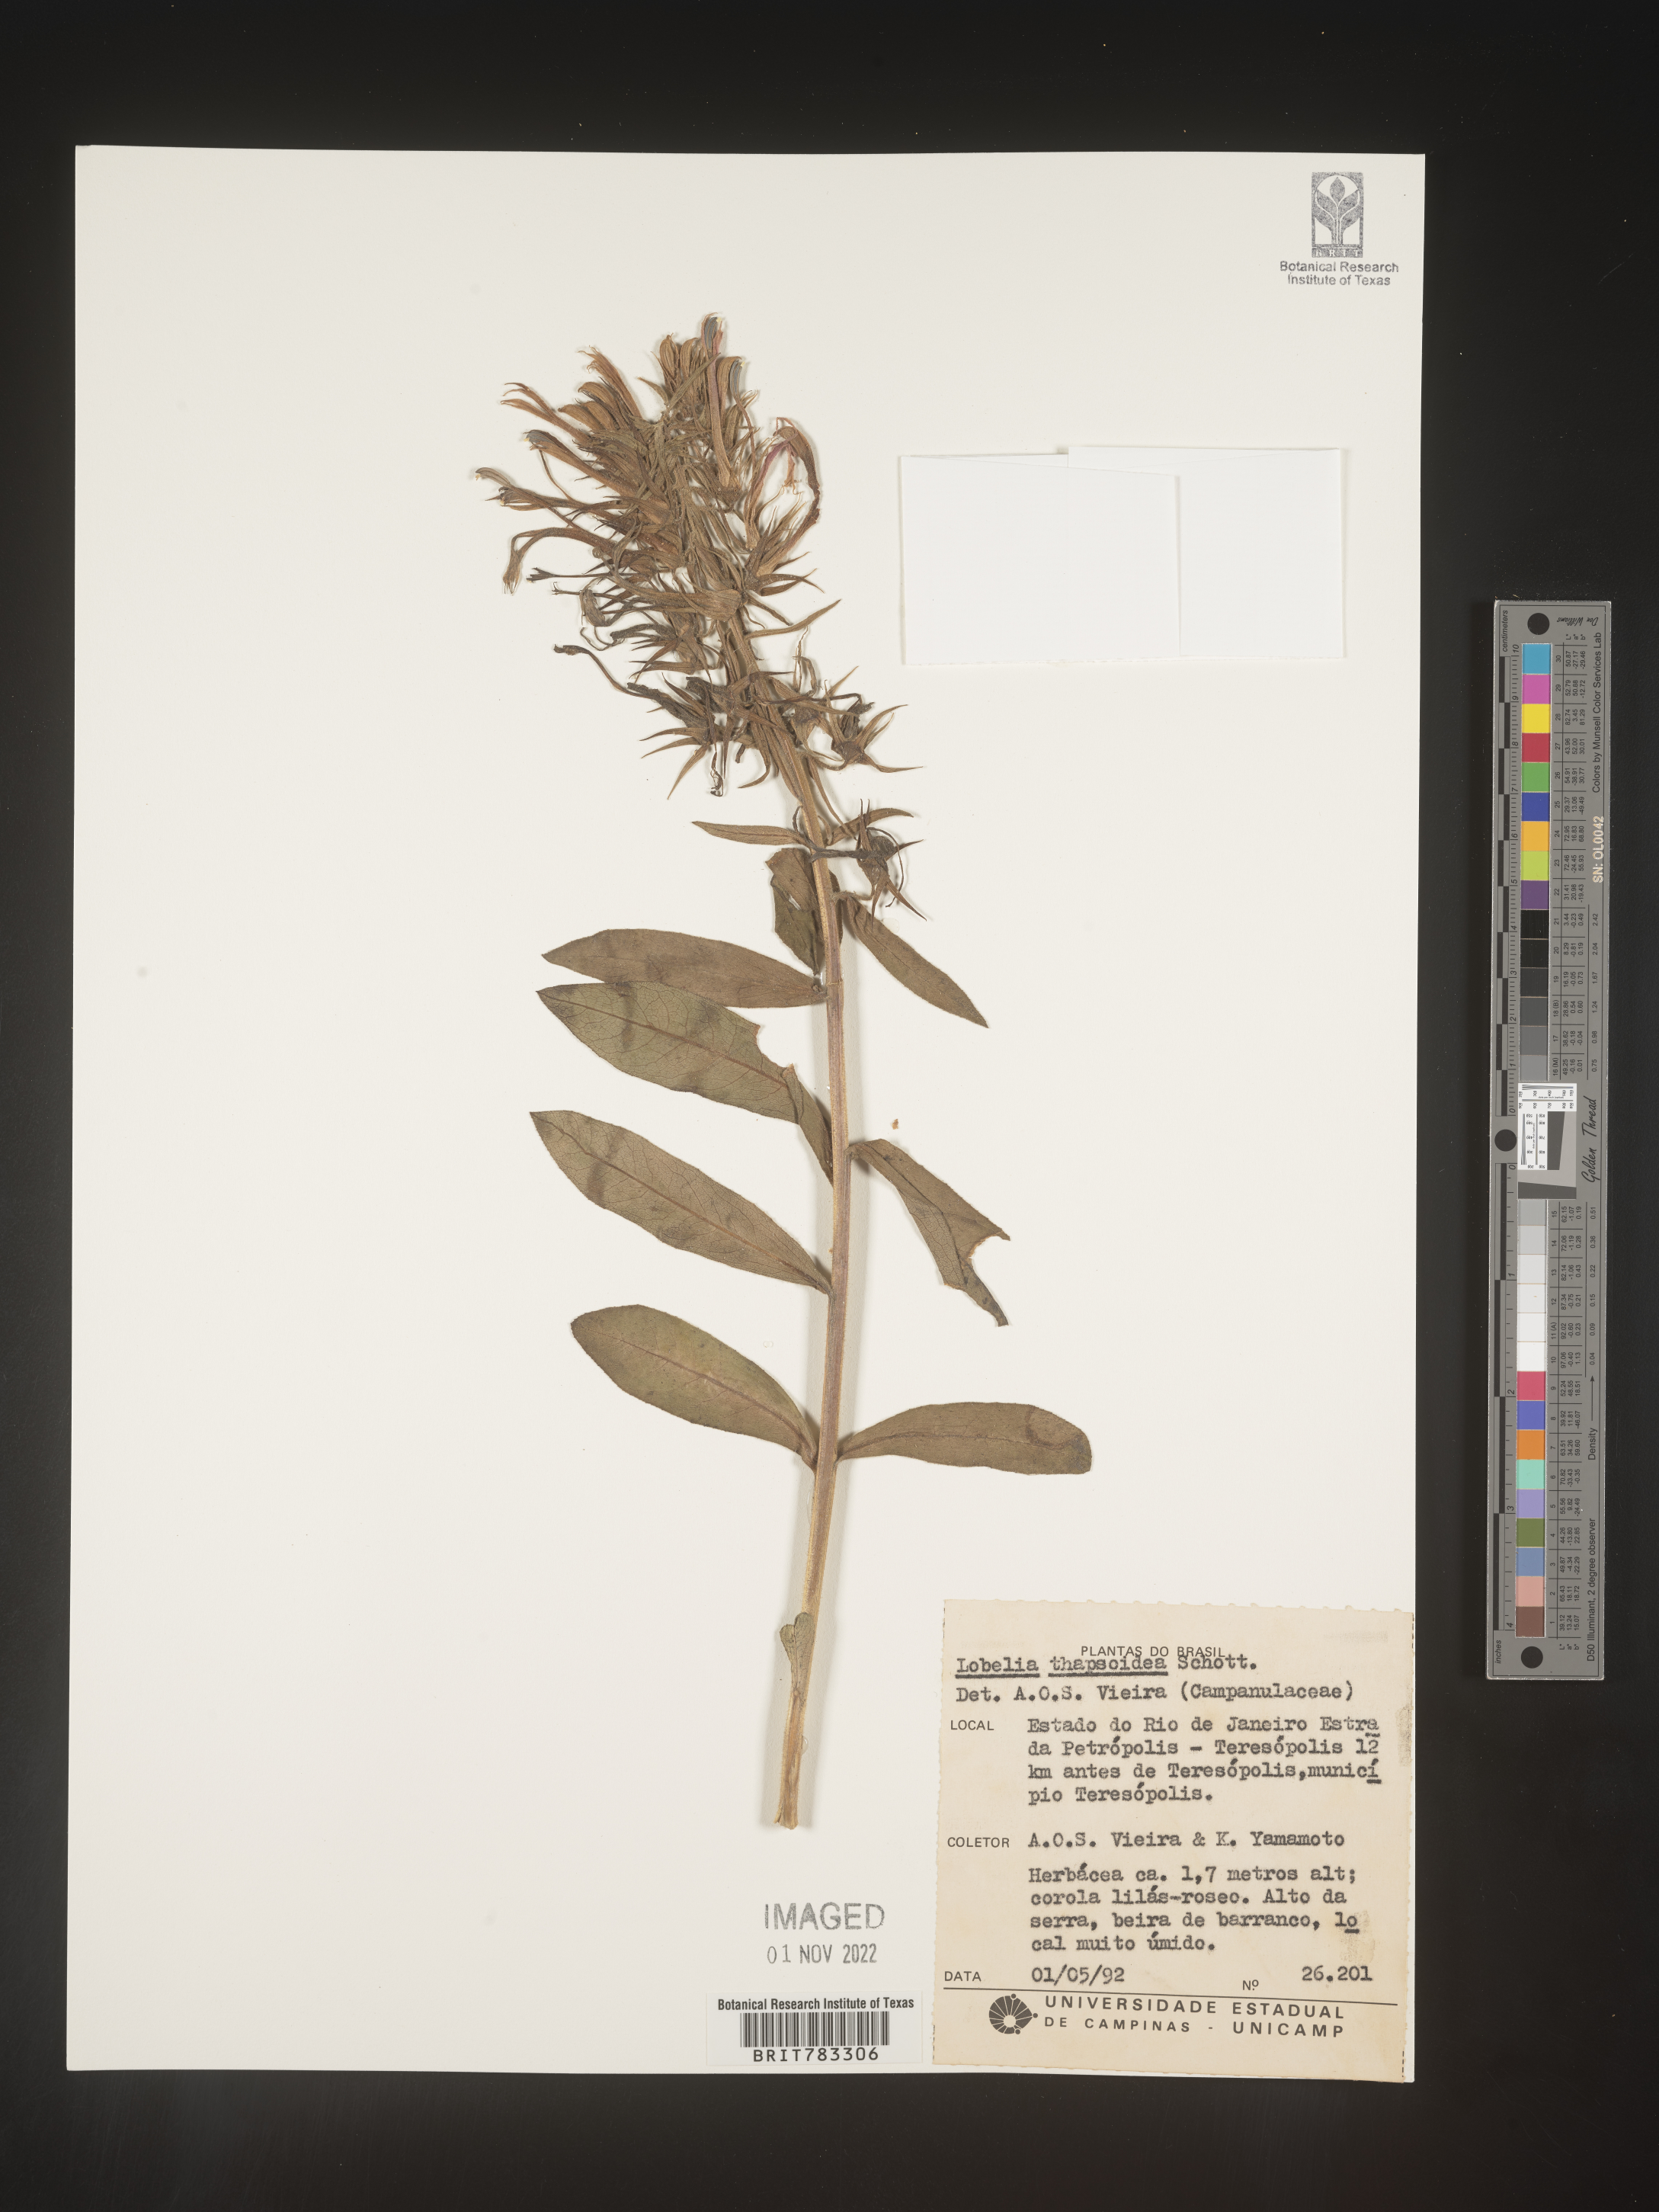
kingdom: Plantae
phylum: Tracheophyta
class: Magnoliopsida
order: Asterales
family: Campanulaceae
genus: Lobelia
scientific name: Lobelia
